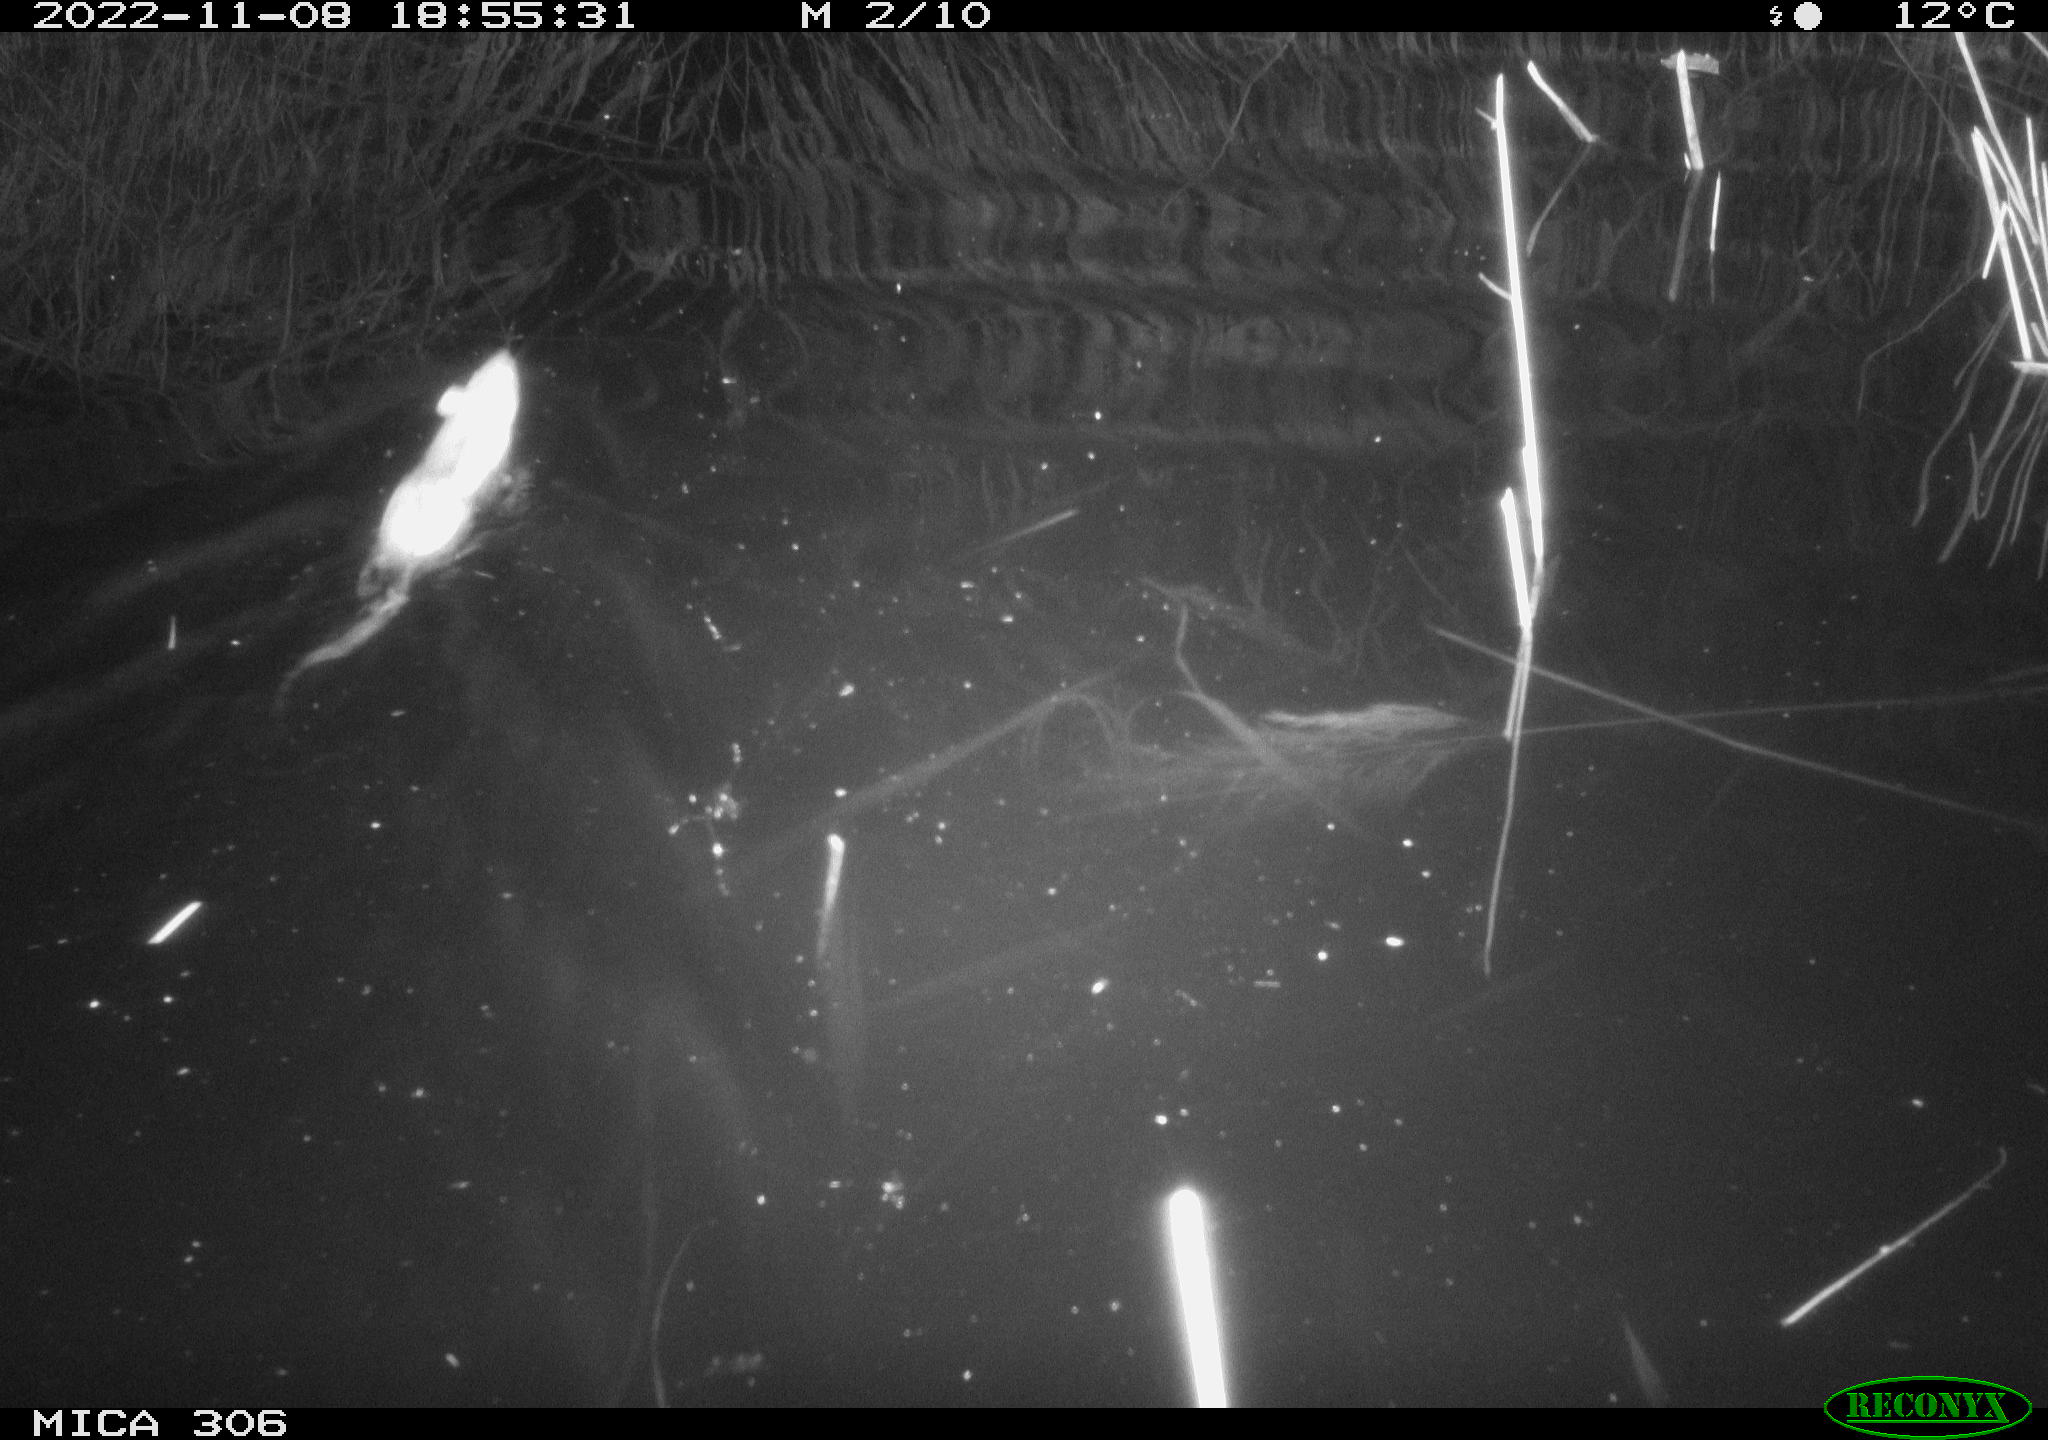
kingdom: Animalia
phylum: Chordata
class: Mammalia
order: Rodentia
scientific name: Rodentia
